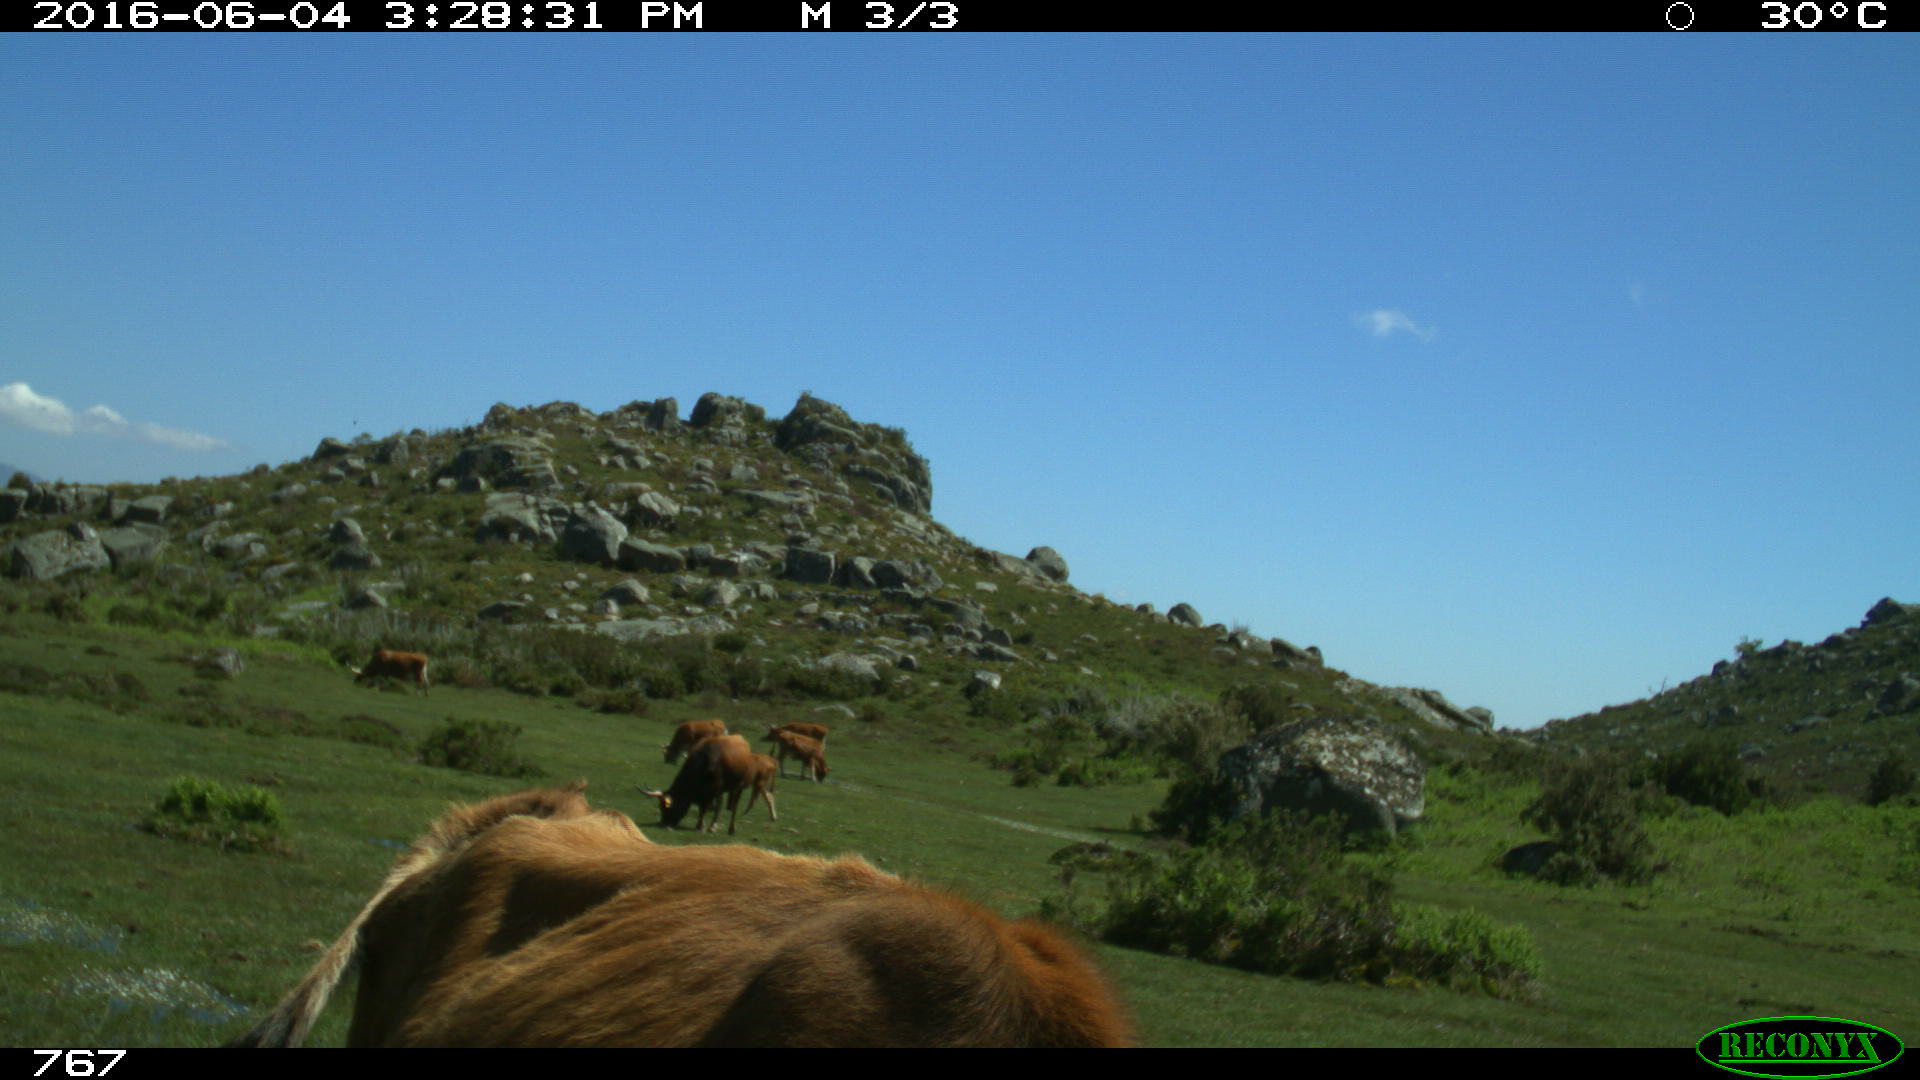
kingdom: Animalia
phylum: Chordata
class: Mammalia
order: Artiodactyla
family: Bovidae
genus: Bos
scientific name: Bos taurus
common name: Domesticated cattle
